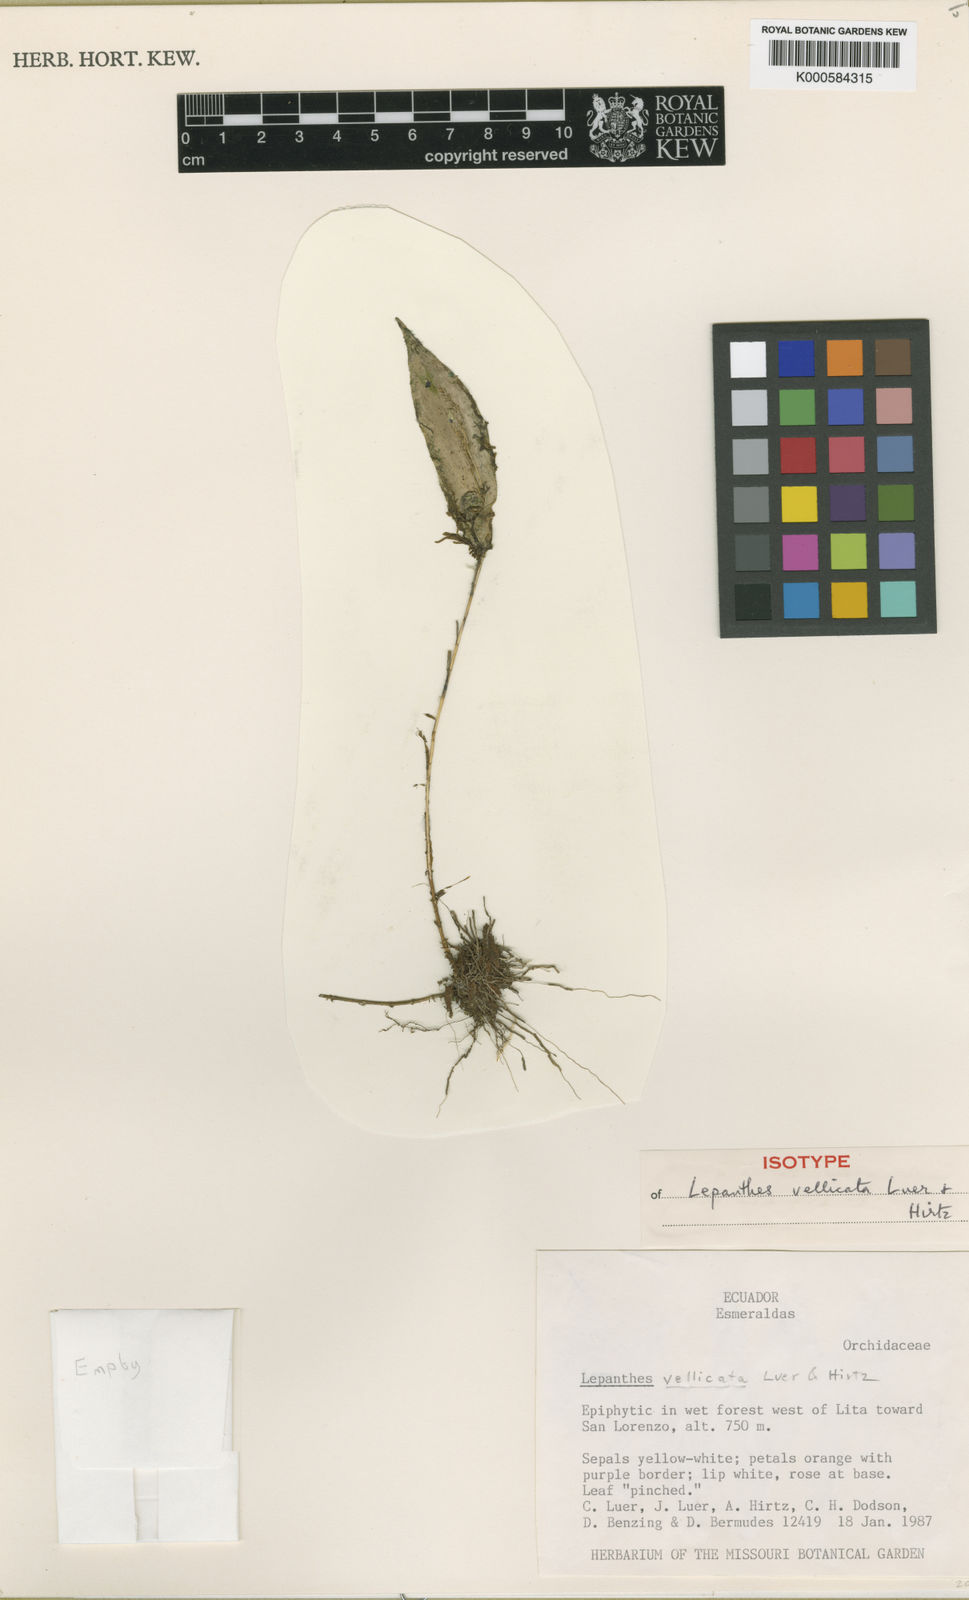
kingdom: Plantae
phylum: Tracheophyta
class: Liliopsida
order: Asparagales
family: Orchidaceae
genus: Lepanthes
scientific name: Lepanthes vellicata
